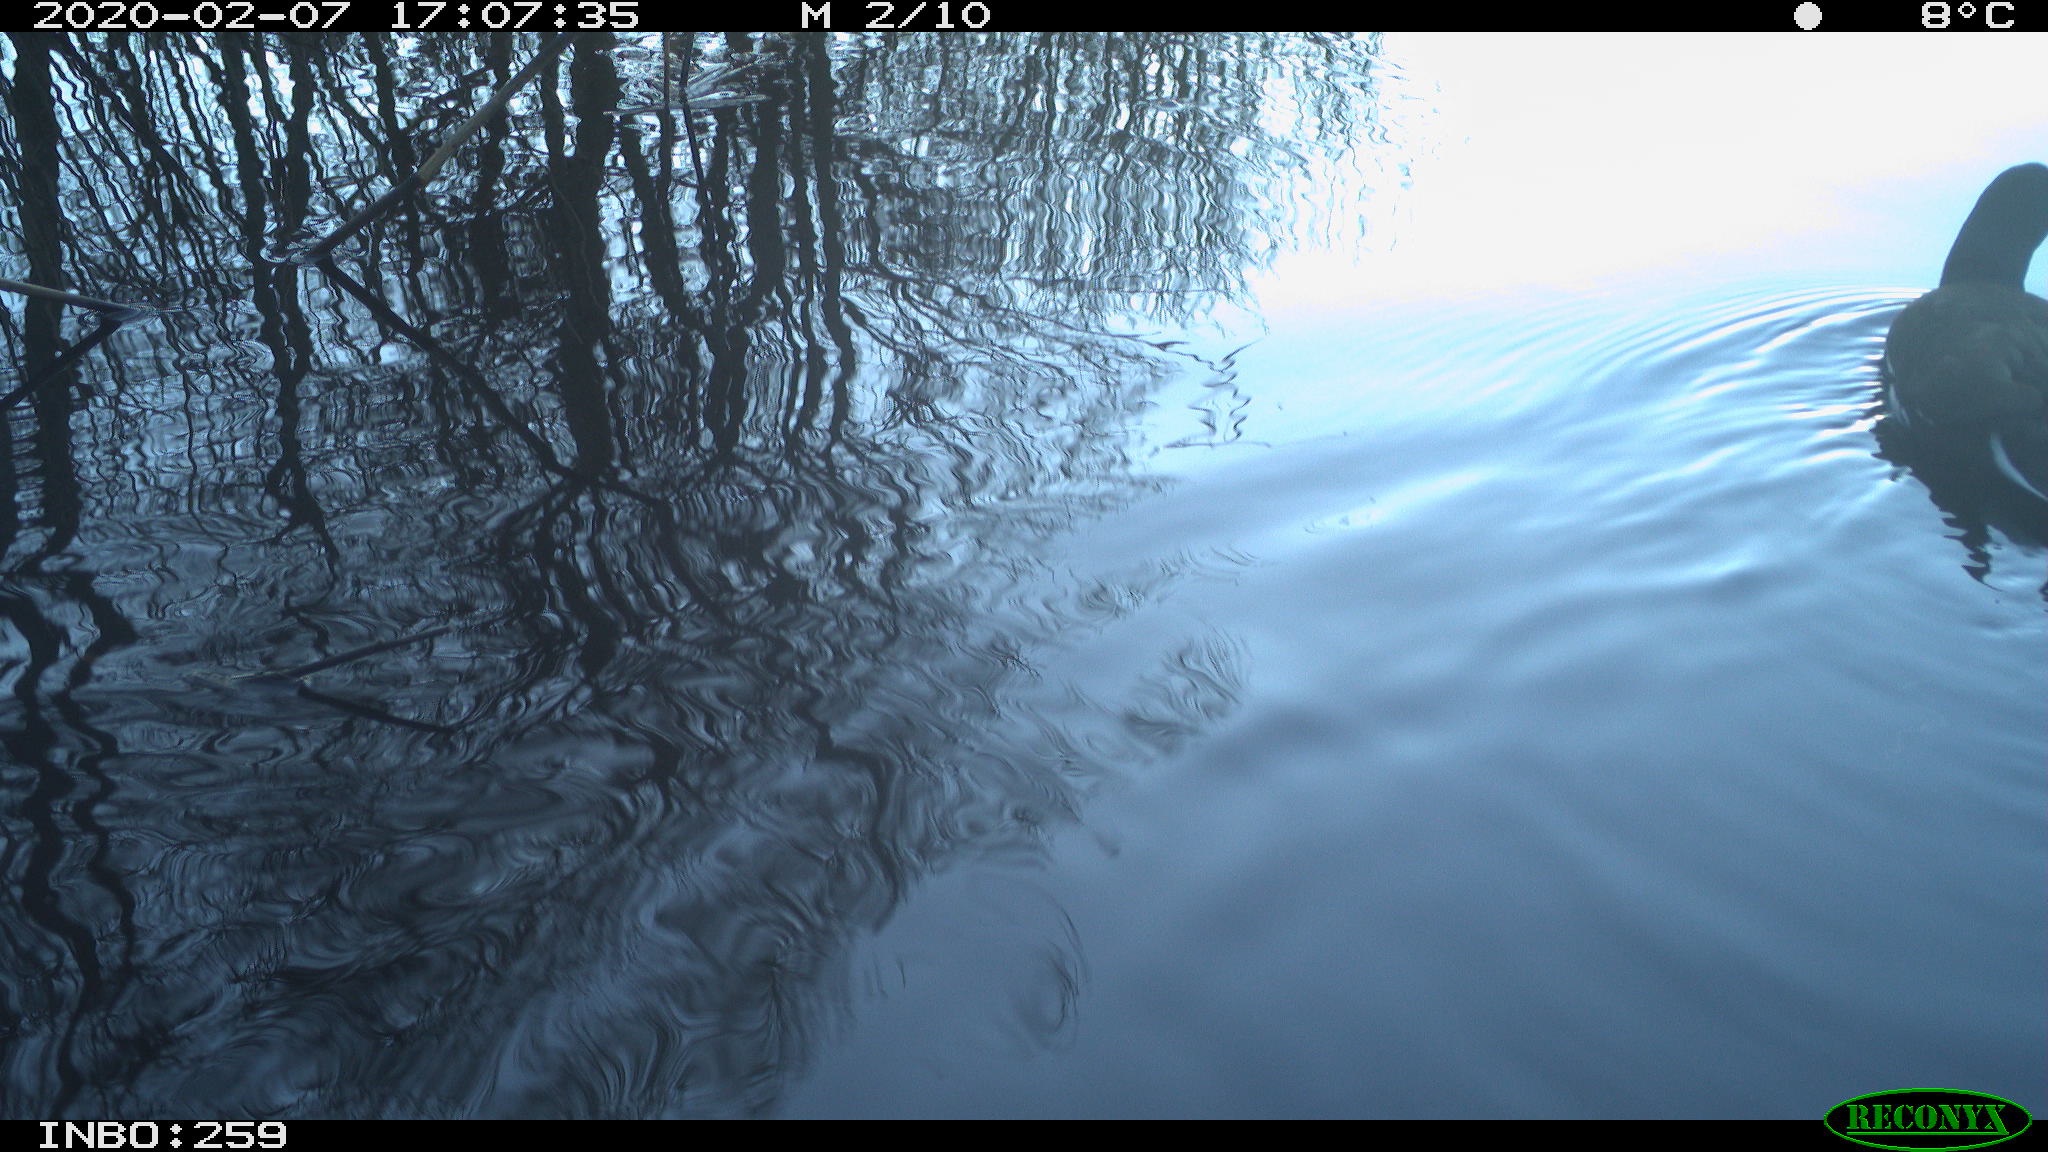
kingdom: Animalia
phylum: Chordata
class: Aves
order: Gruiformes
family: Rallidae
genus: Gallinula
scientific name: Gallinula chloropus
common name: Common moorhen
